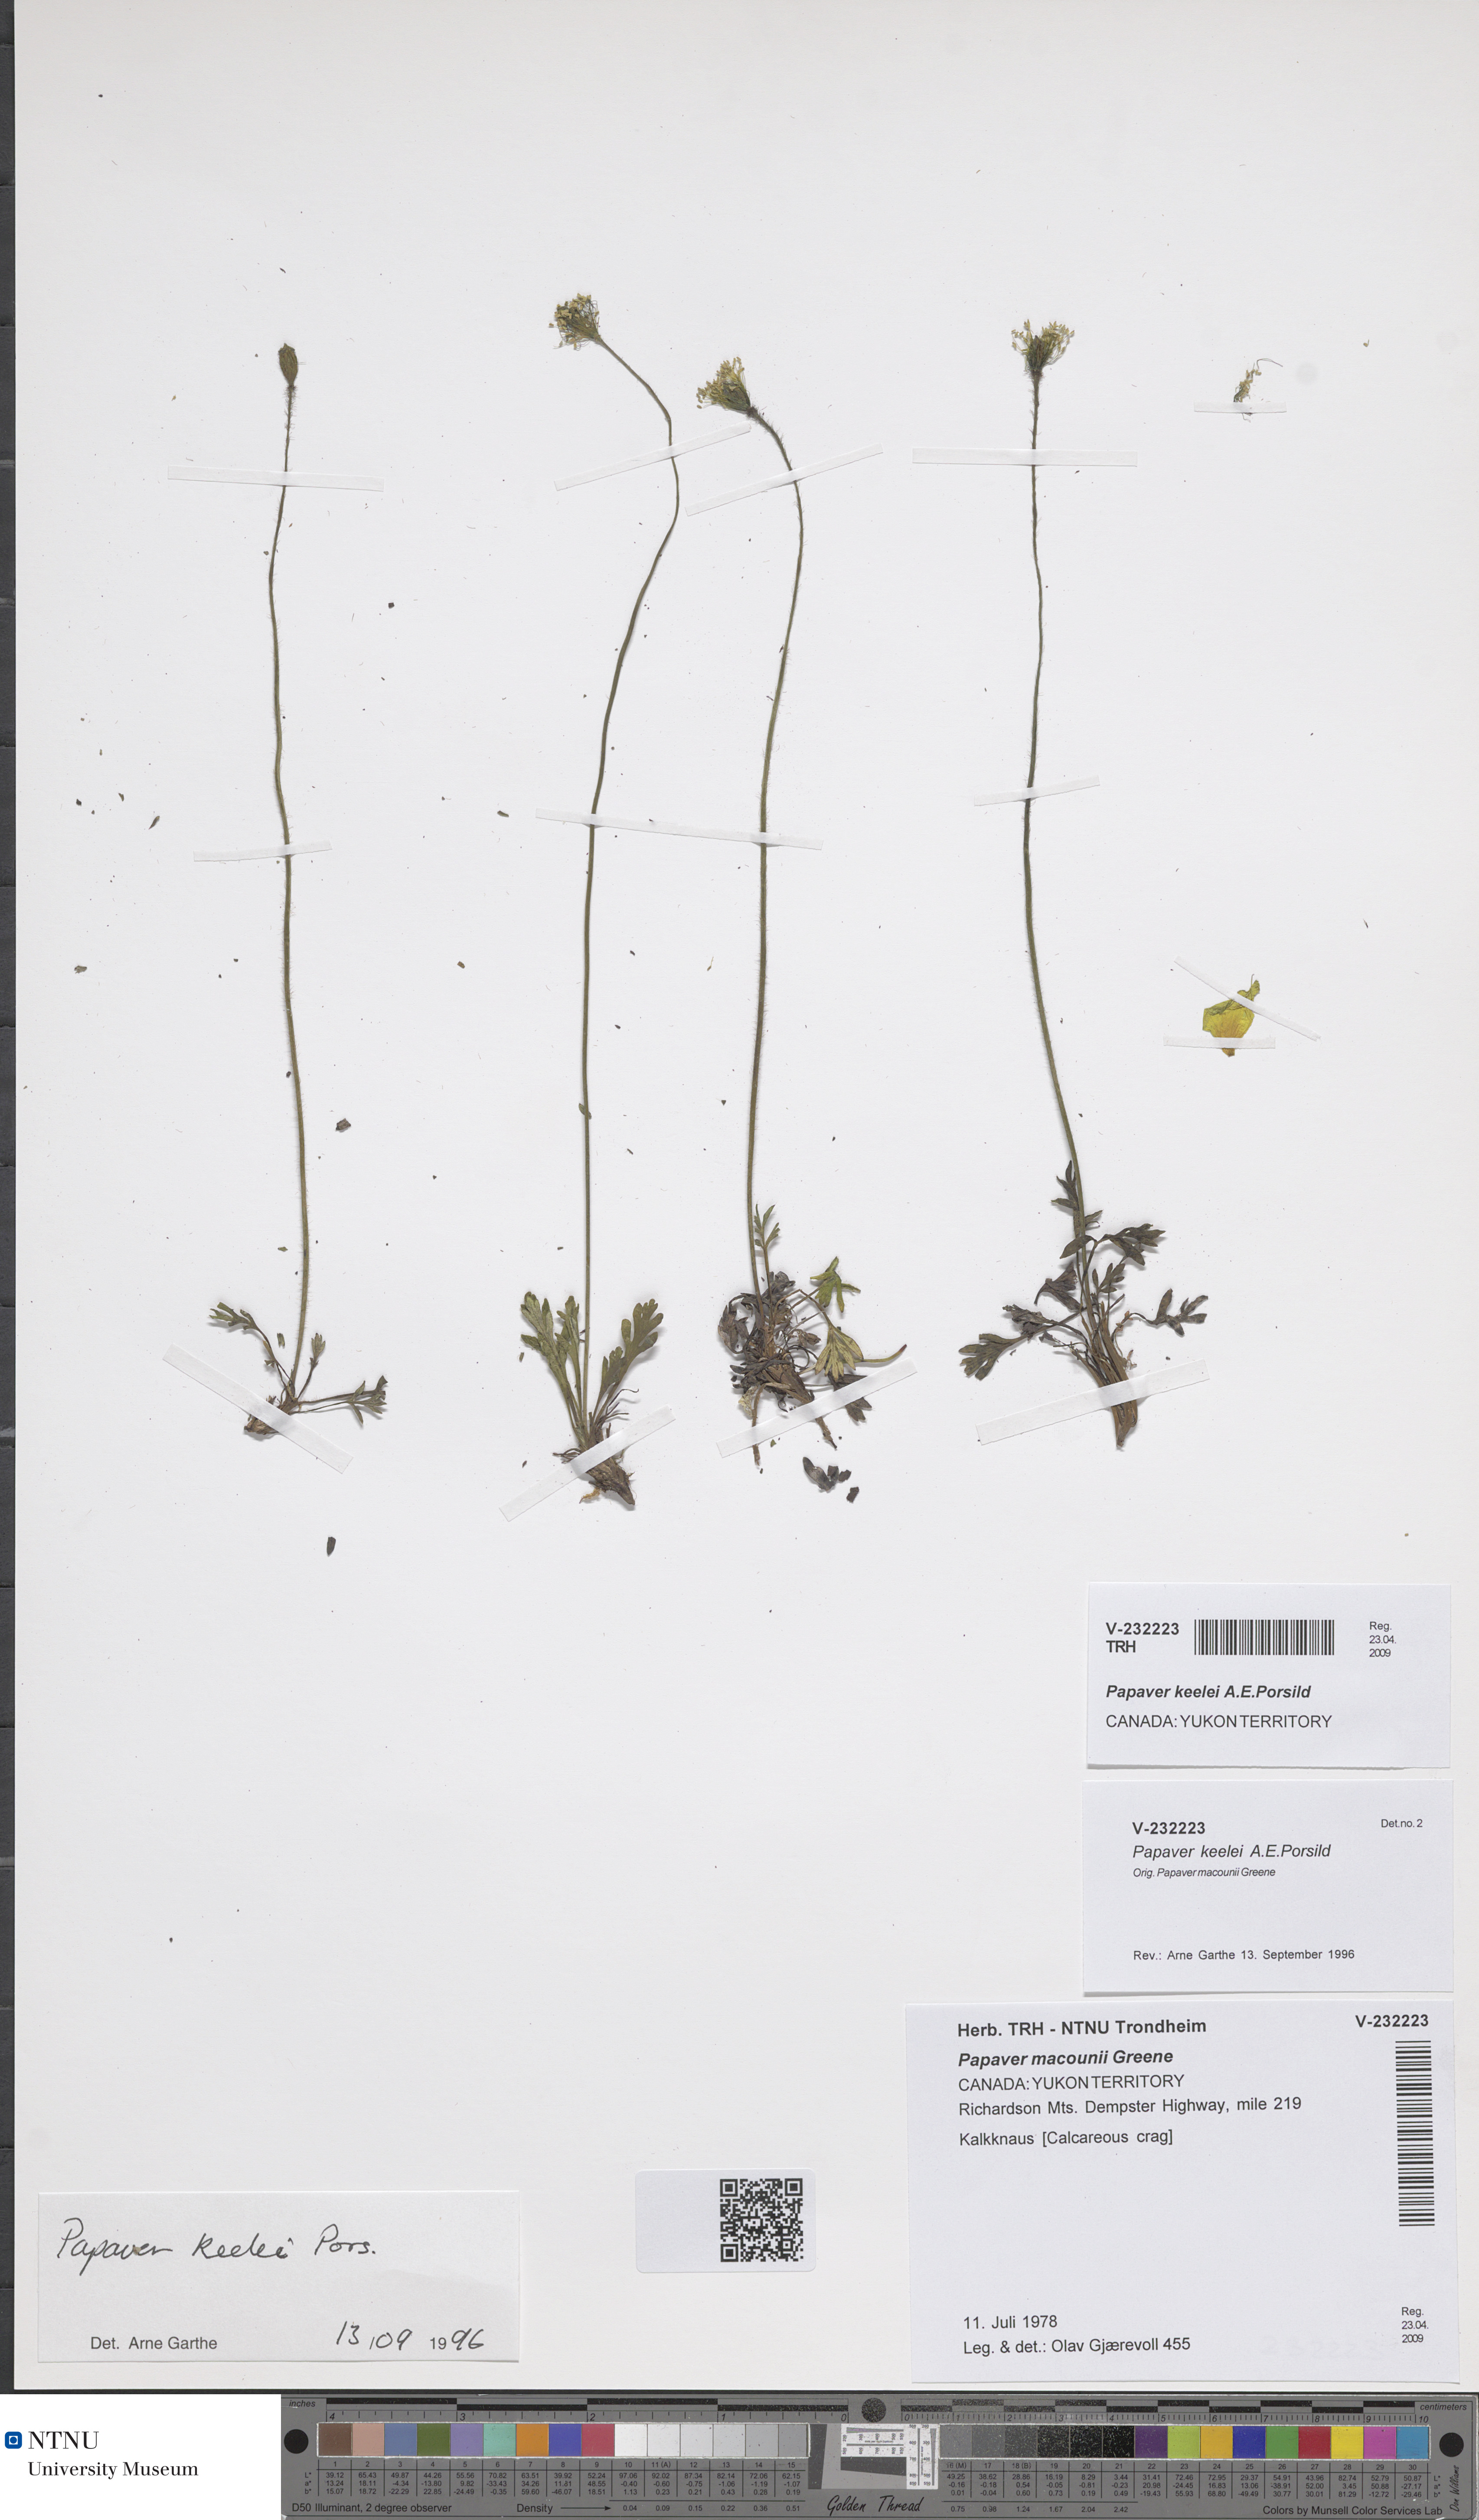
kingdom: Plantae
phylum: Tracheophyta
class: Magnoliopsida
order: Ranunculales
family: Papaveraceae
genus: Papaver
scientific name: Papaver macounii
